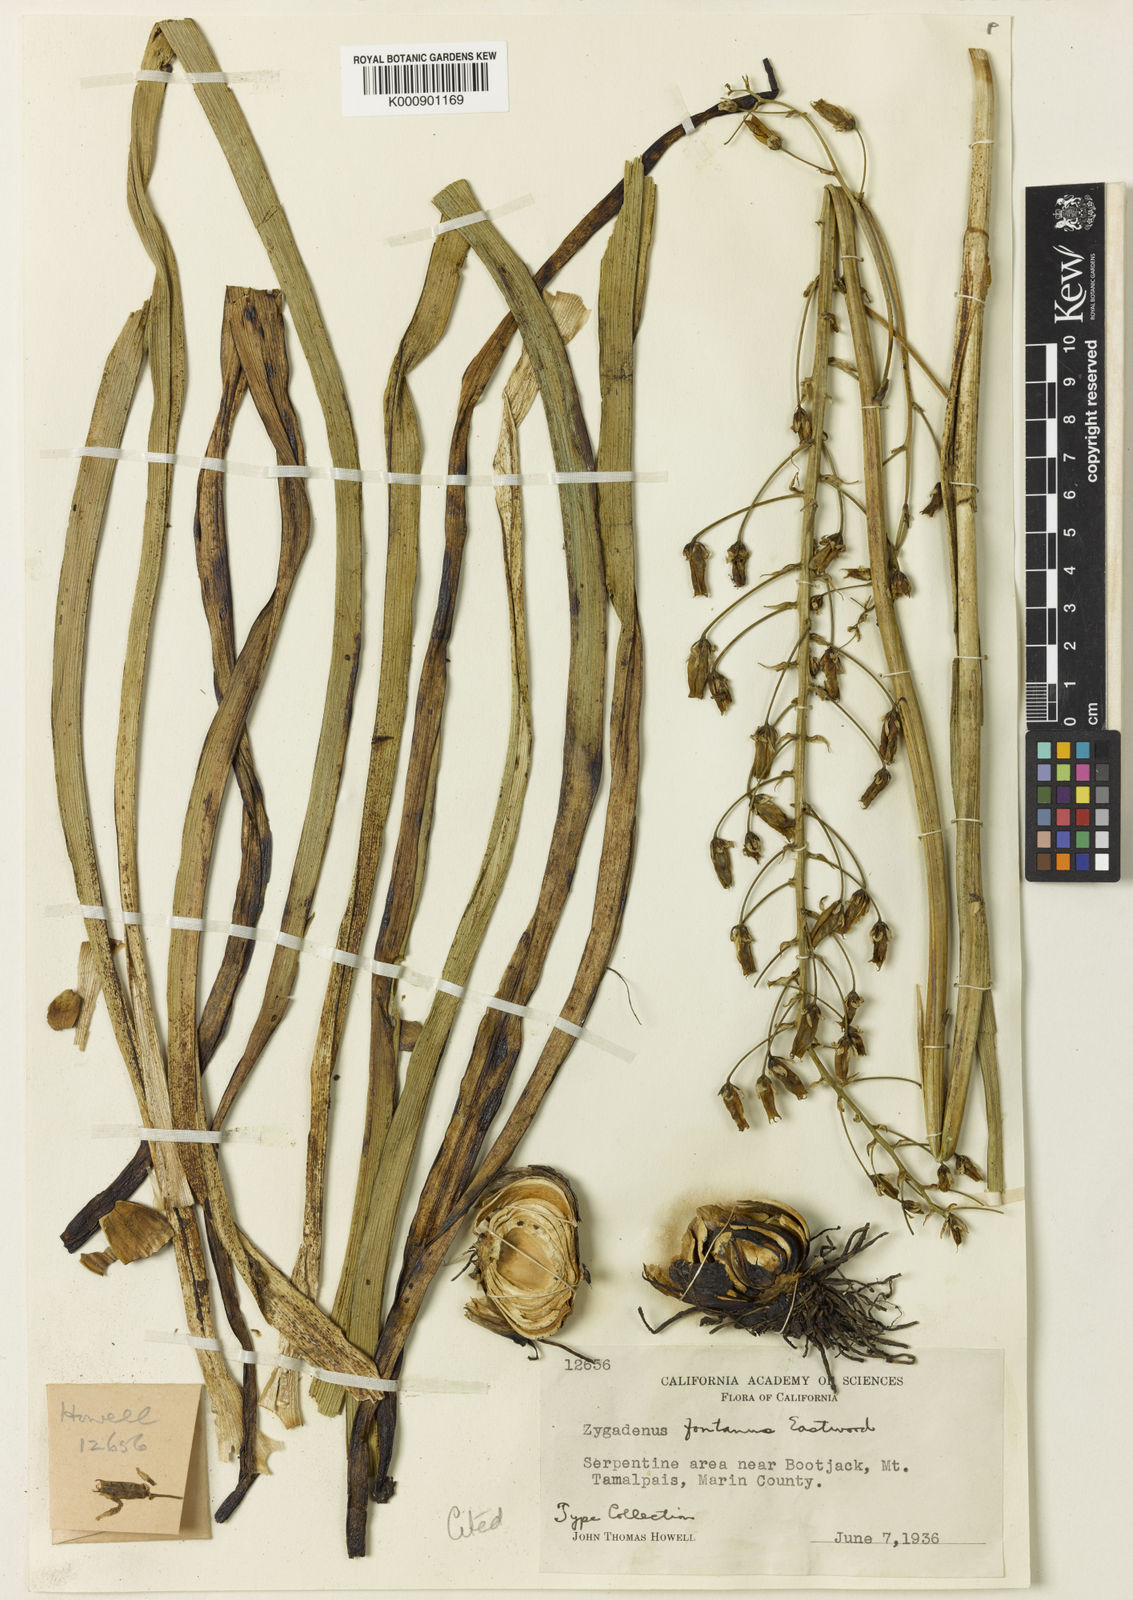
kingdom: Plantae
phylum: Tracheophyta
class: Liliopsida
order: Liliales
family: Melanthiaceae
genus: Toxicoscordion
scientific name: Toxicoscordion venenosum
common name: Meadow death camas
